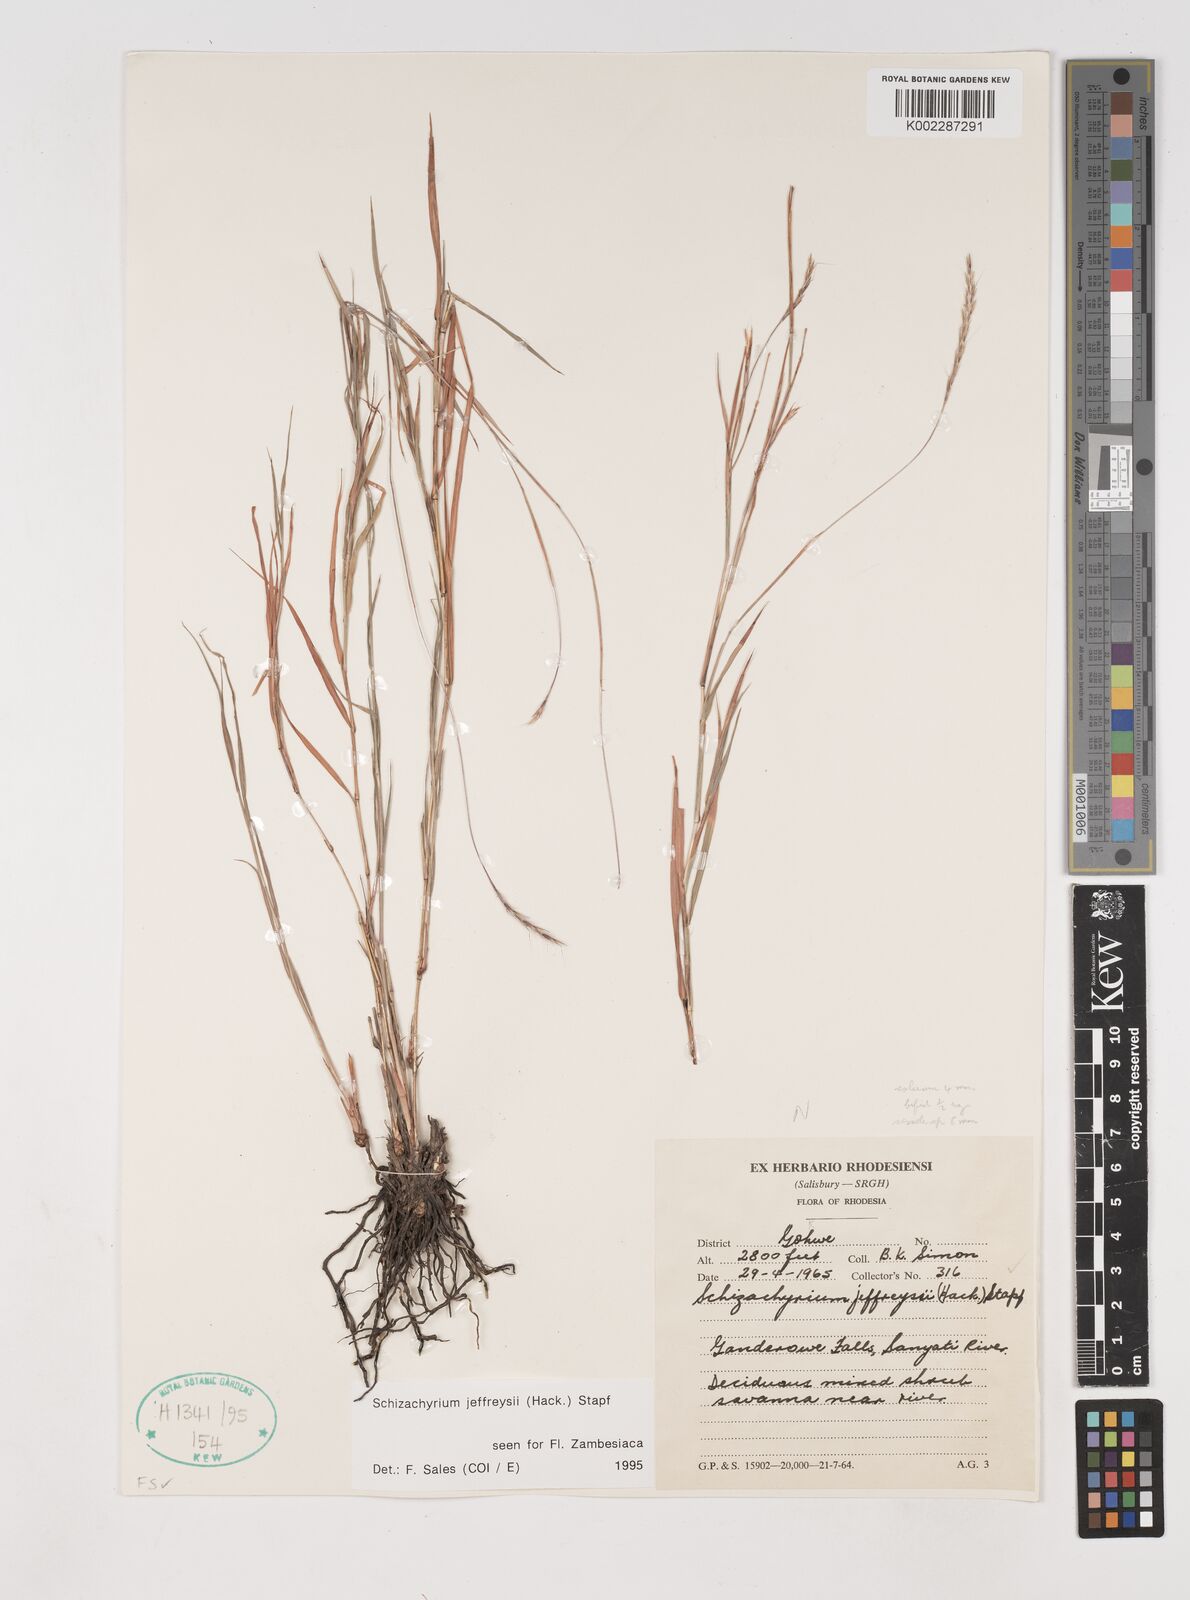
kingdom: Plantae
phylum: Tracheophyta
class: Liliopsida
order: Poales
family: Poaceae
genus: Schizachyrium
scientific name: Schizachyrium jeffreysii
